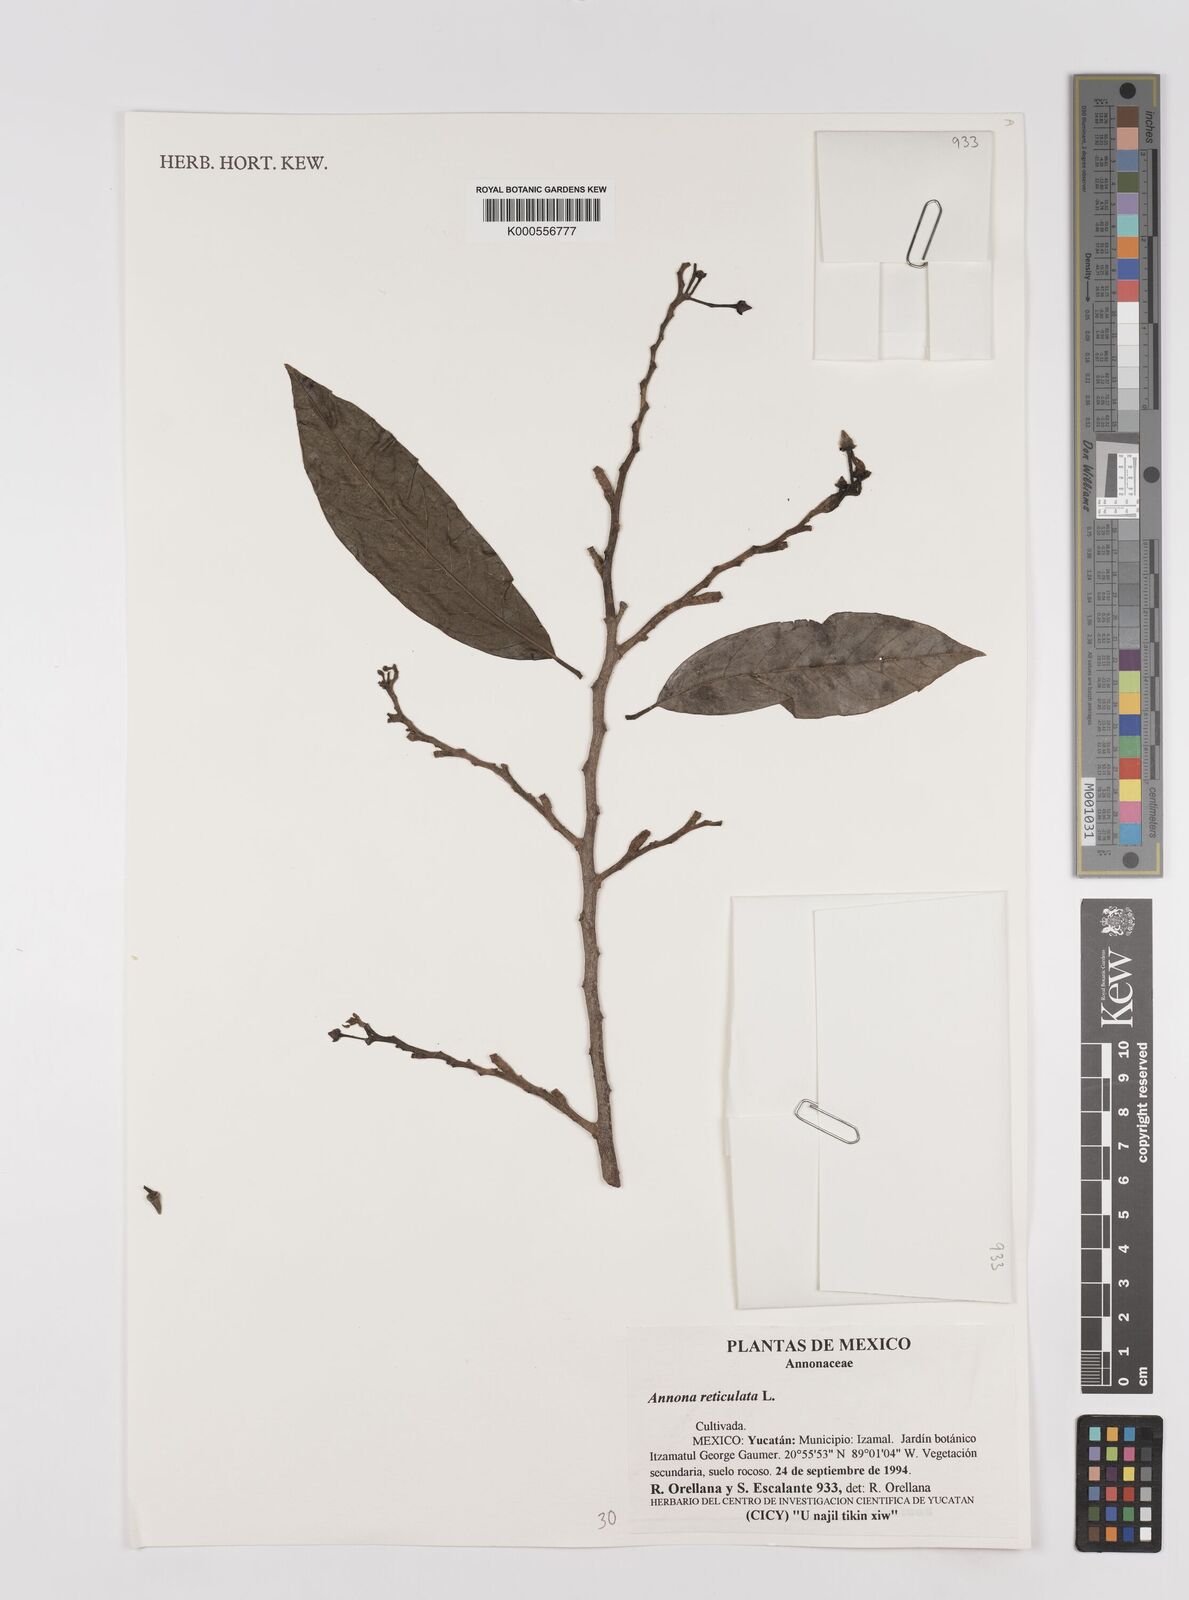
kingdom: Plantae
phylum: Tracheophyta
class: Magnoliopsida
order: Magnoliales
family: Annonaceae
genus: Annona
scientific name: Annona reticulata
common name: Custard apple
